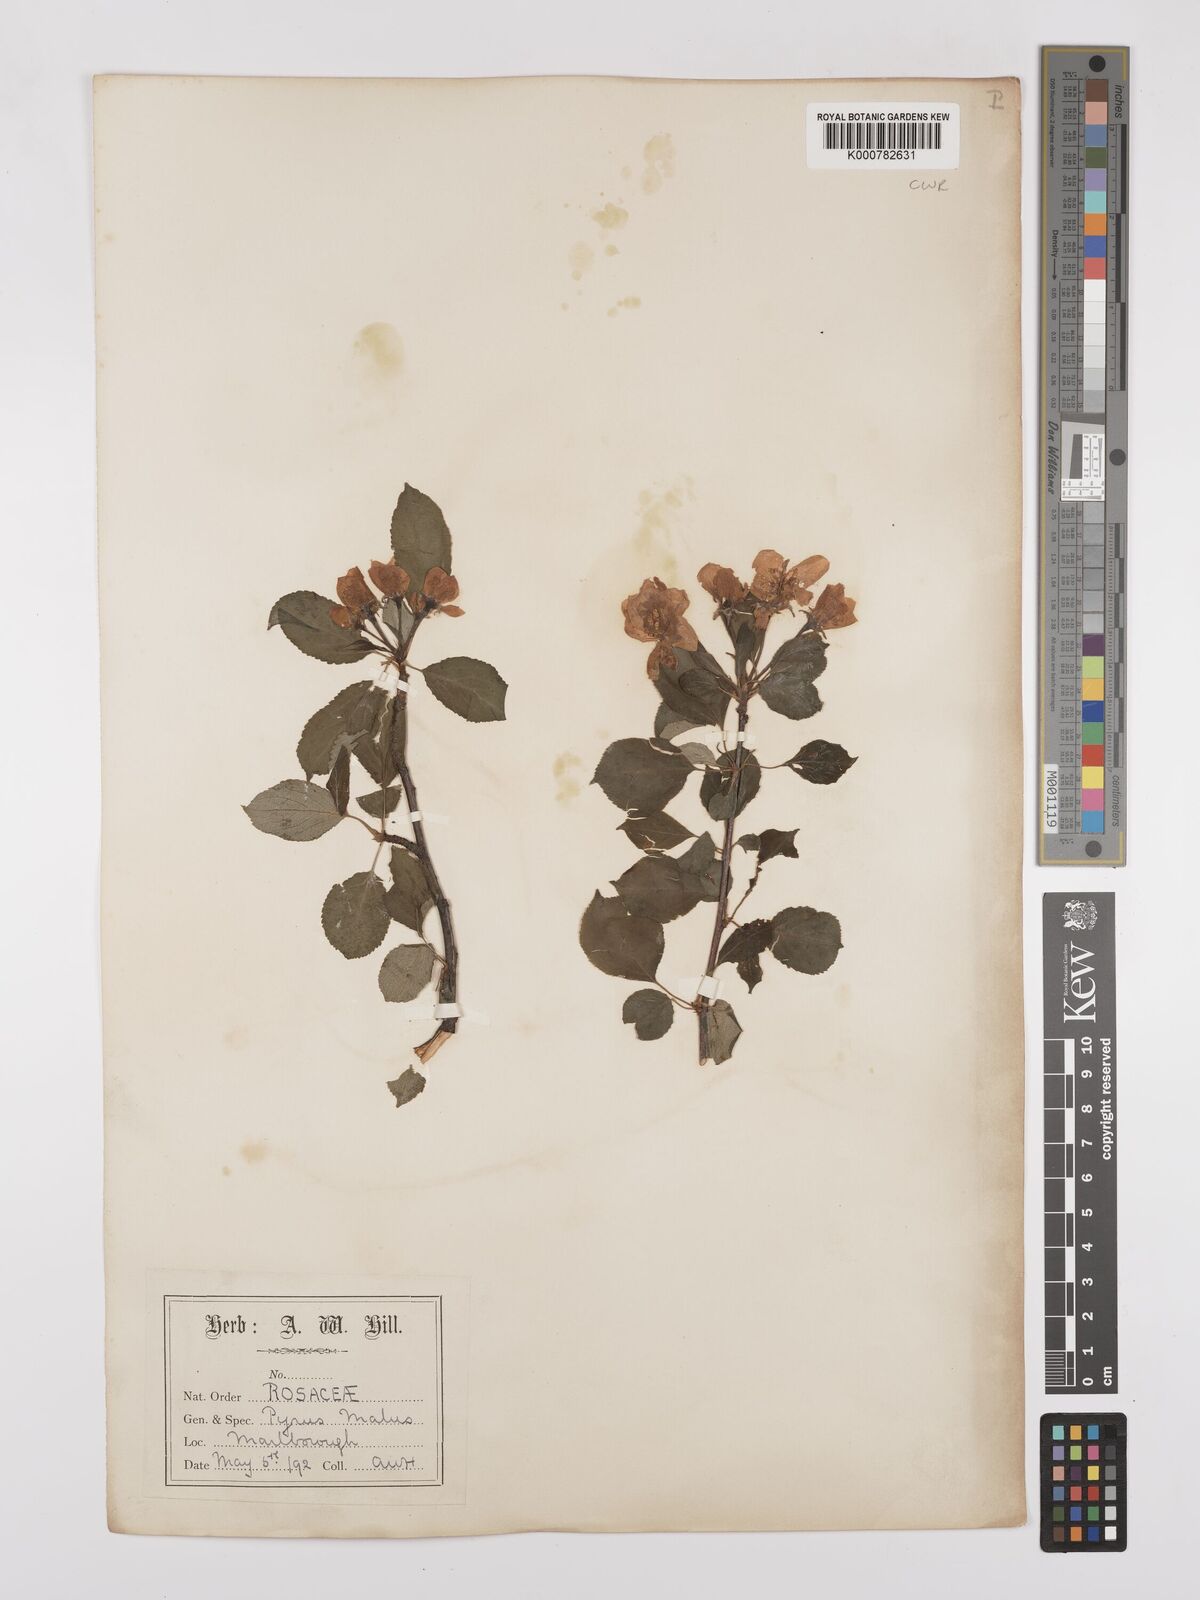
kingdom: Plantae
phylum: Tracheophyta
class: Magnoliopsida
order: Rosales
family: Rosaceae
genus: Malus
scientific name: Malus domestica
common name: Apple
